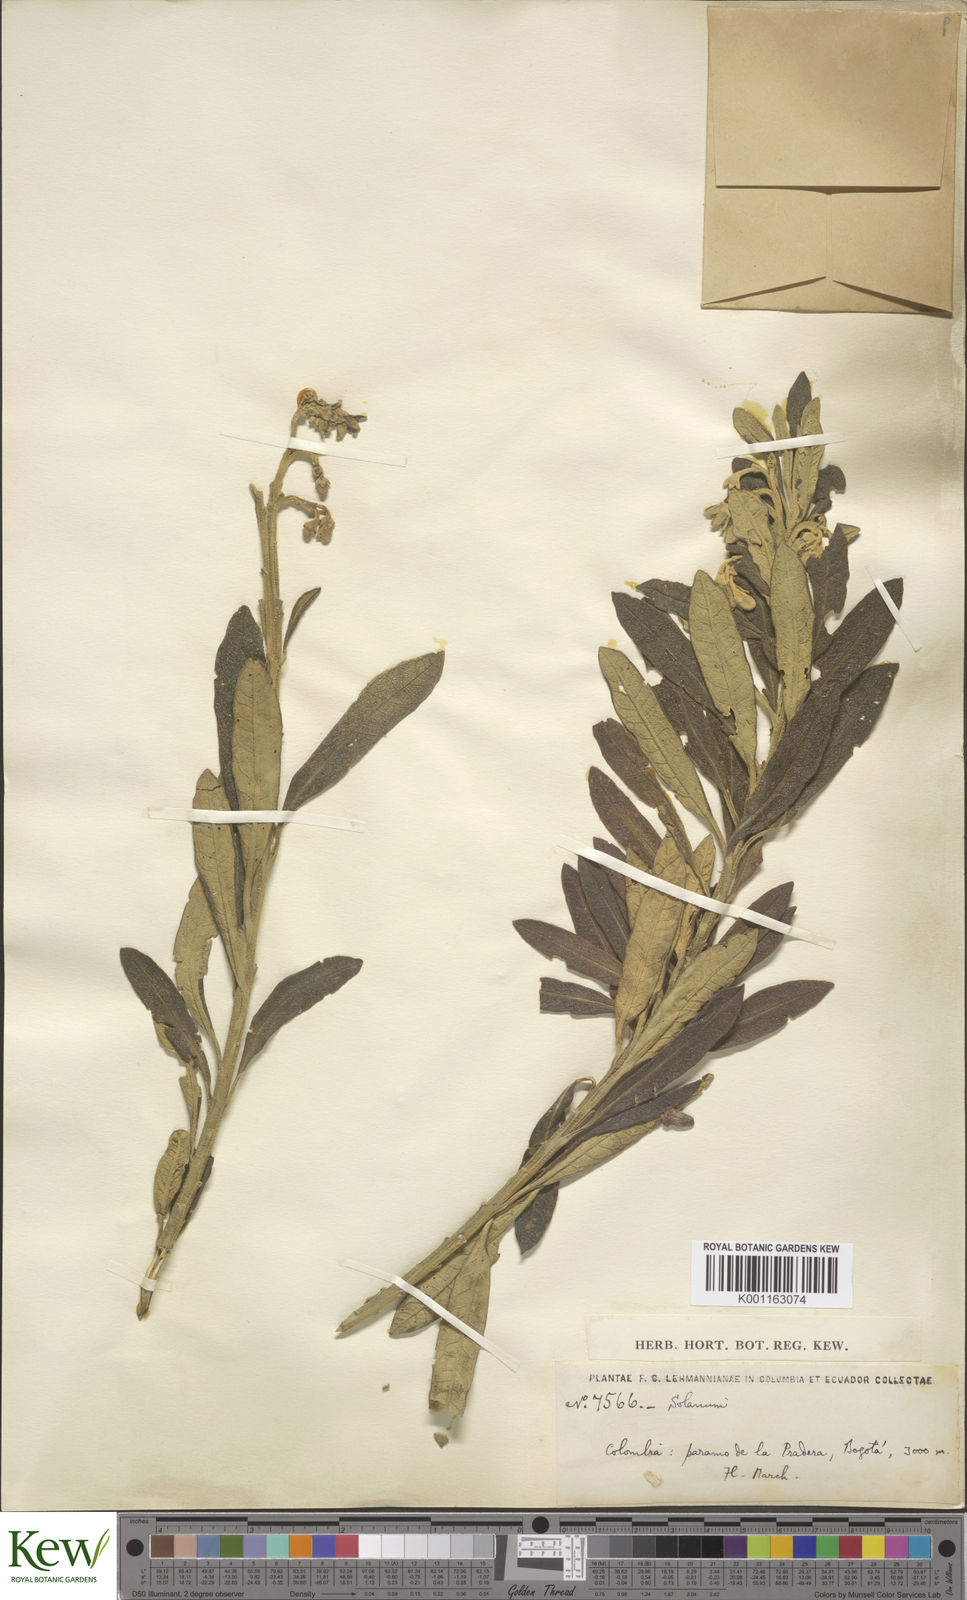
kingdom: Plantae
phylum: Tracheophyta
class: Magnoliopsida
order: Solanales
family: Solanaceae
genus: Solanum
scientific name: Solanum stenophyllum
